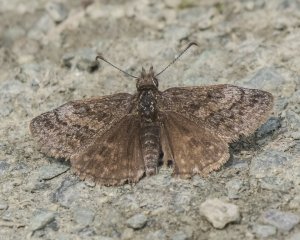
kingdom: Animalia
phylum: Arthropoda
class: Insecta
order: Lepidoptera
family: Hesperiidae
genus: Erynnis
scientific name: Erynnis icelus
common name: Dreamy Duskywing
